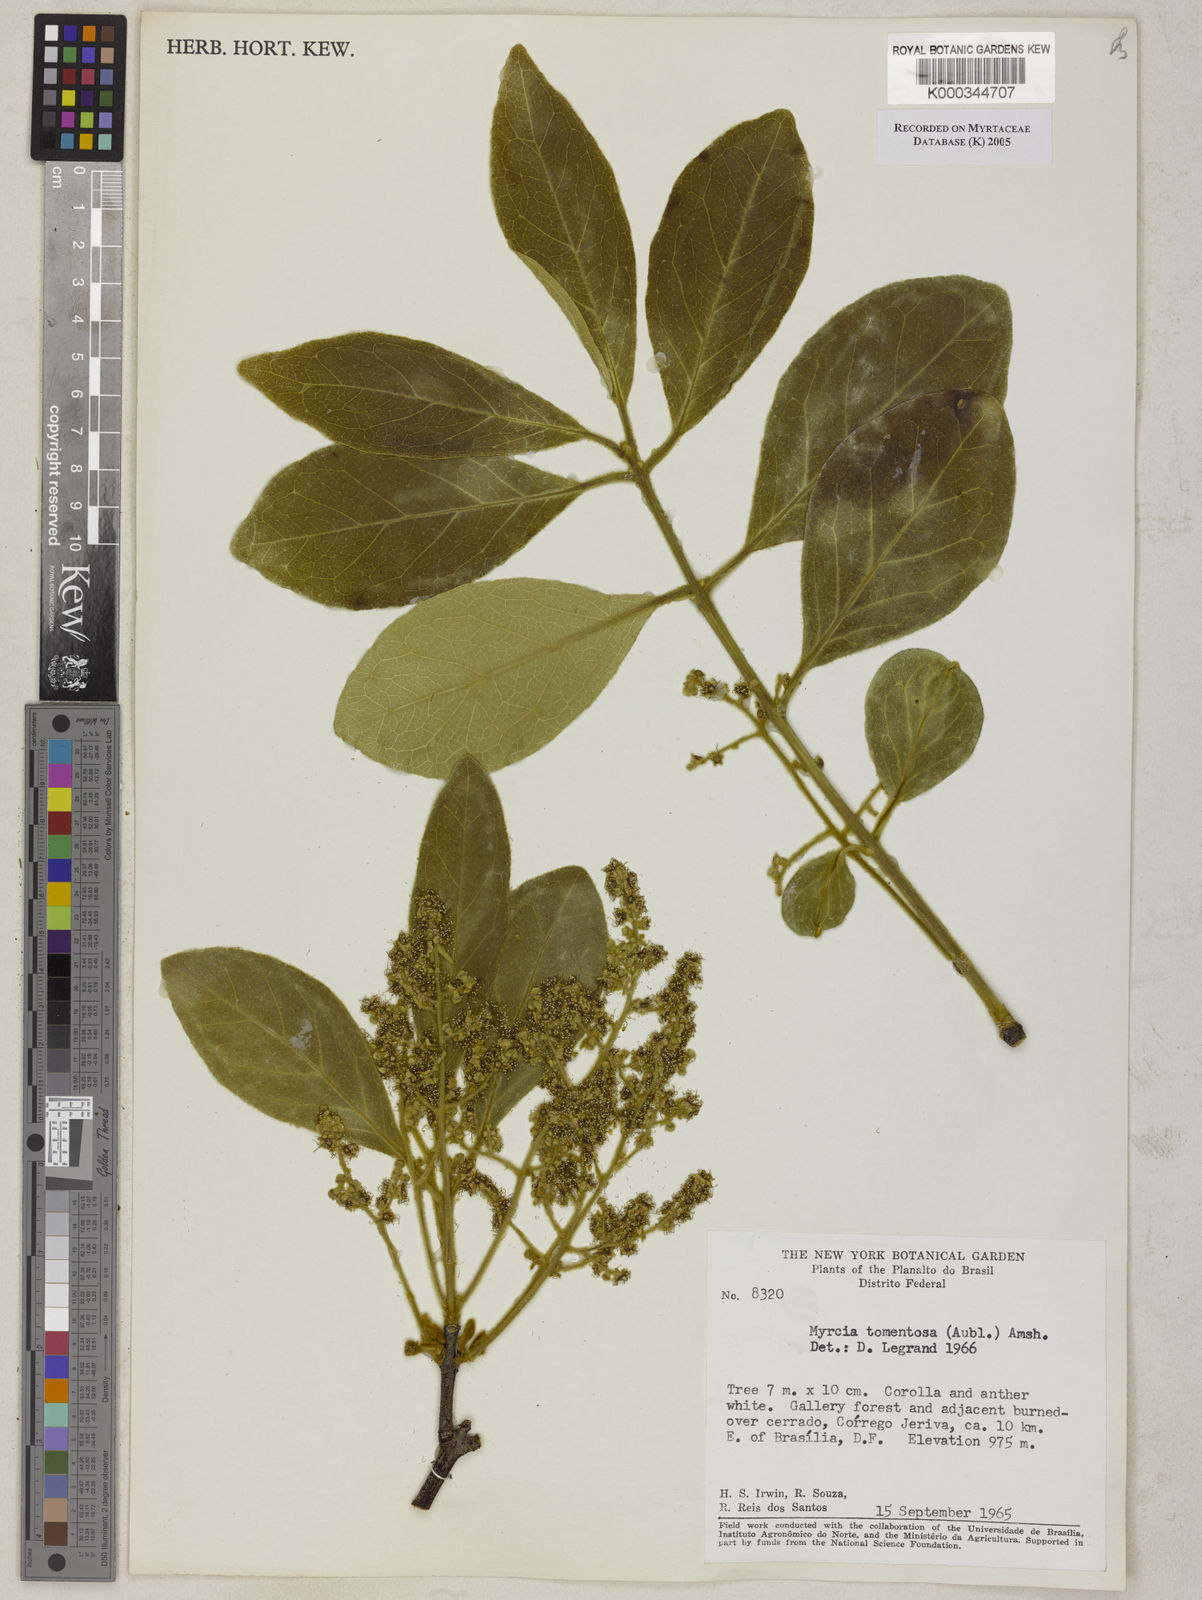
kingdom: Plantae
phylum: Tracheophyta
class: Magnoliopsida
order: Myrtales
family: Myrtaceae
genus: Myrcia
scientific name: Myrcia tomentosa
